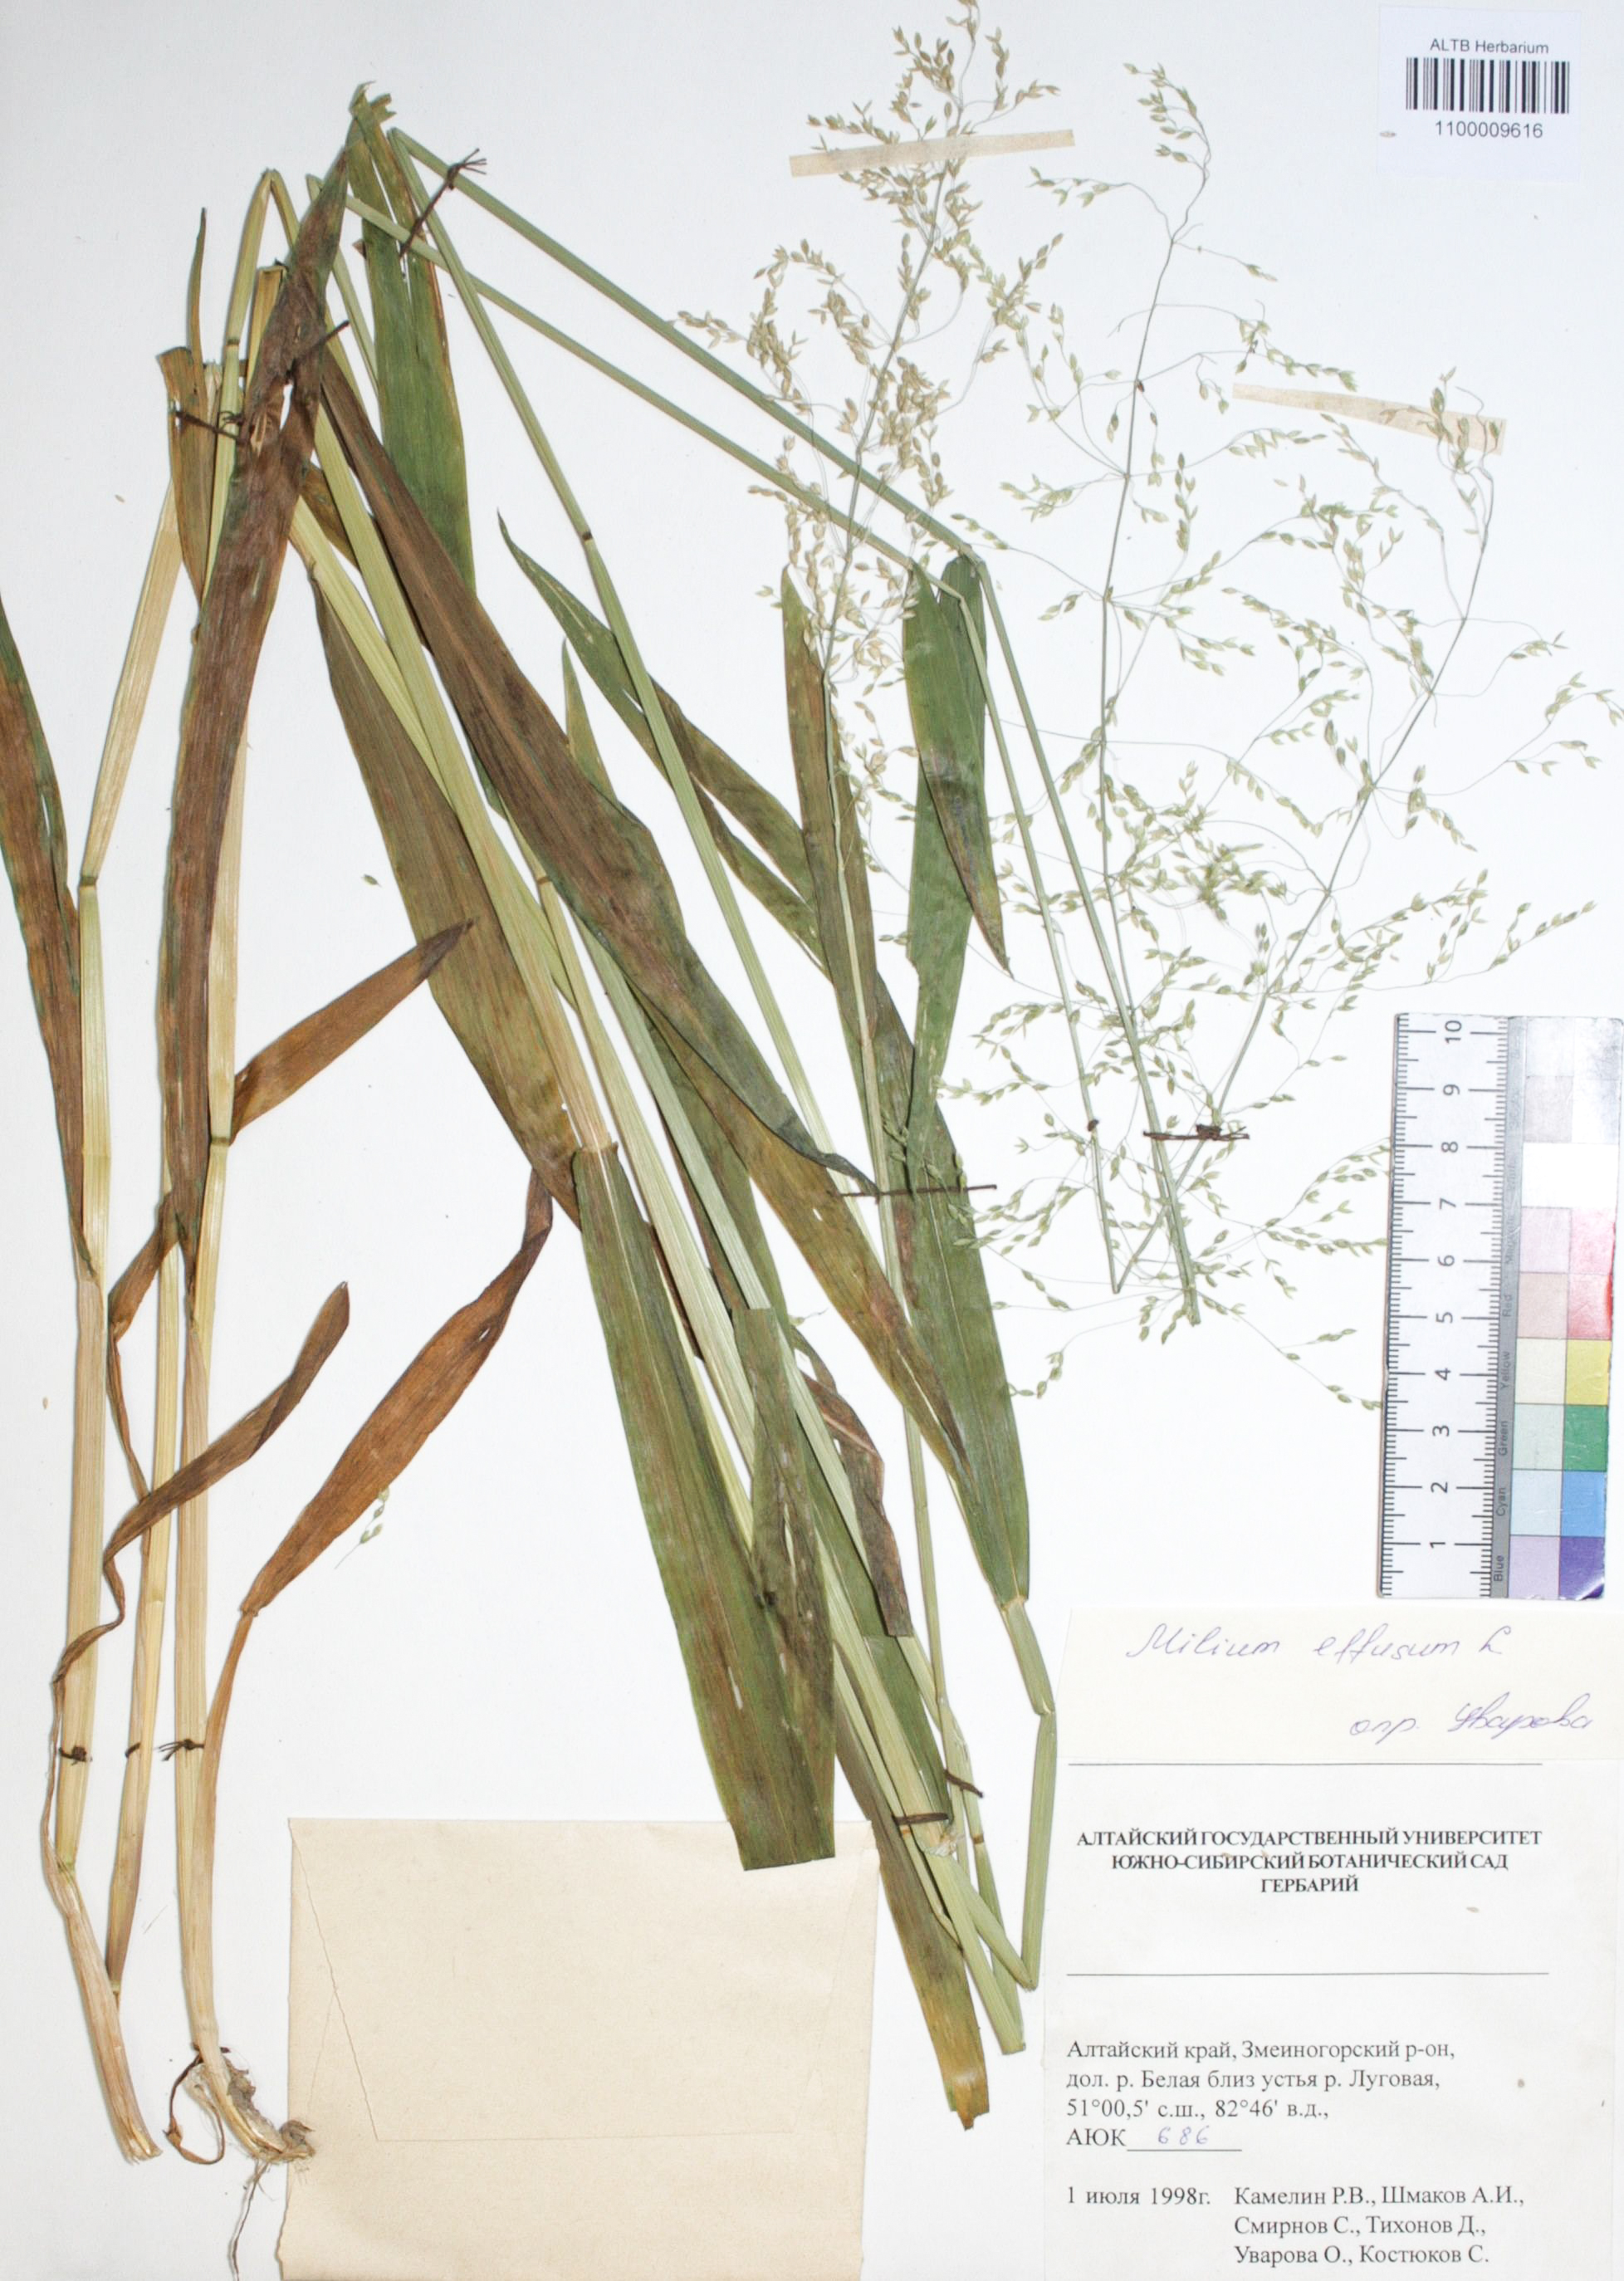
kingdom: Plantae
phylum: Tracheophyta
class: Liliopsida
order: Poales
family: Poaceae
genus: Milium
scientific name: Milium effusum
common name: Wood millet
